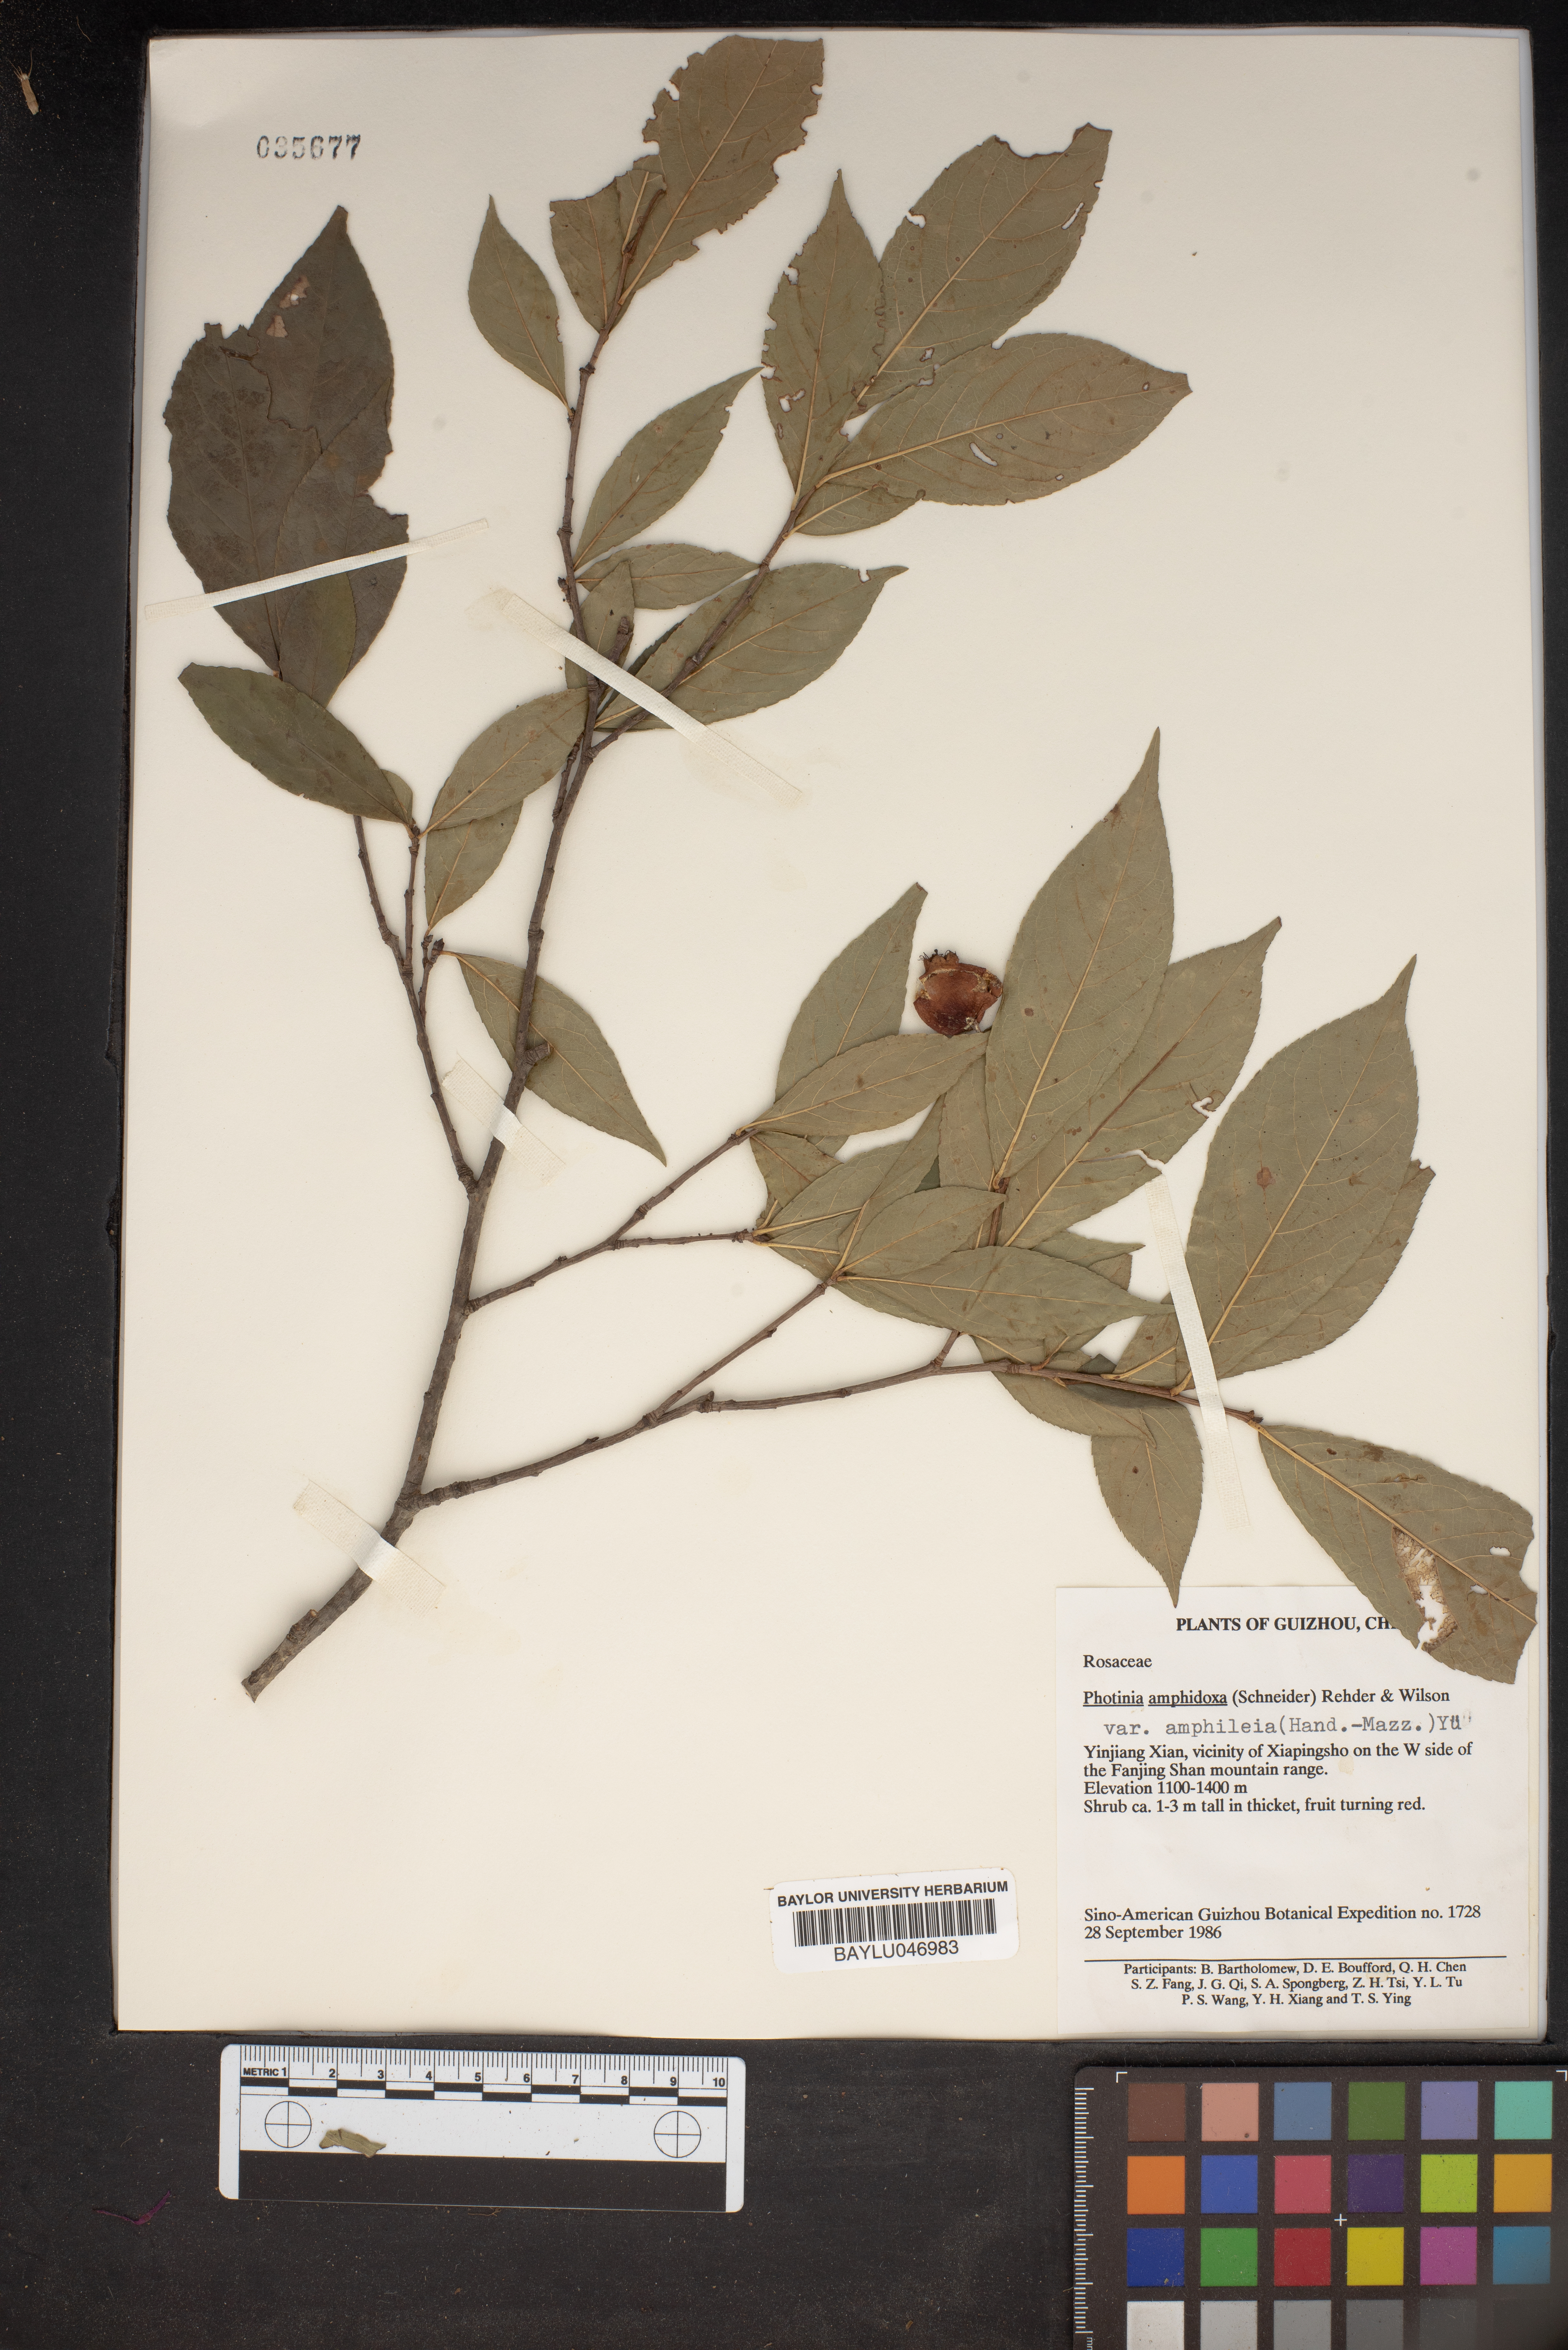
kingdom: Plantae
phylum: Tracheophyta
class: Magnoliopsida
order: Rosales
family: Rosaceae
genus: Pourthiaea
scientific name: Pourthiaea amphidoxa
